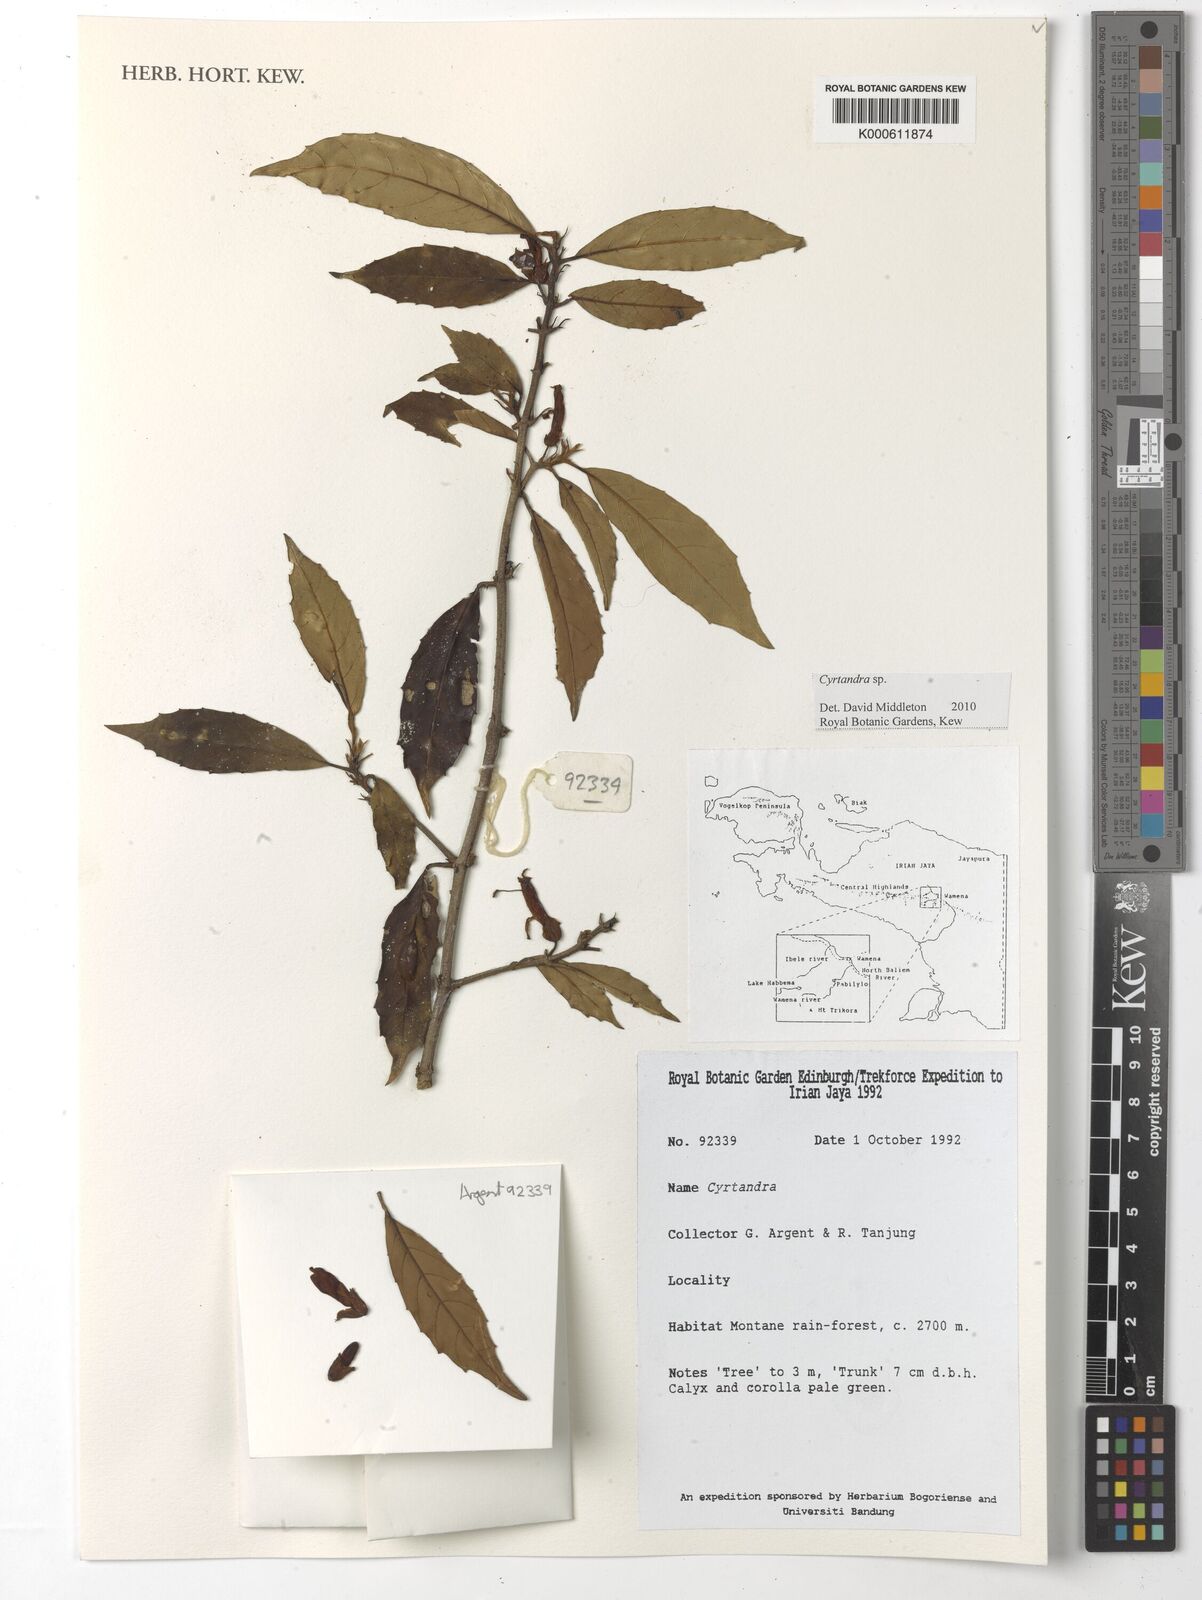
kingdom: Plantae
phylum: Tracheophyta
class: Magnoliopsida
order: Lamiales
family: Gesneriaceae
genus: Cyrtandra
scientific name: Cyrtandra
